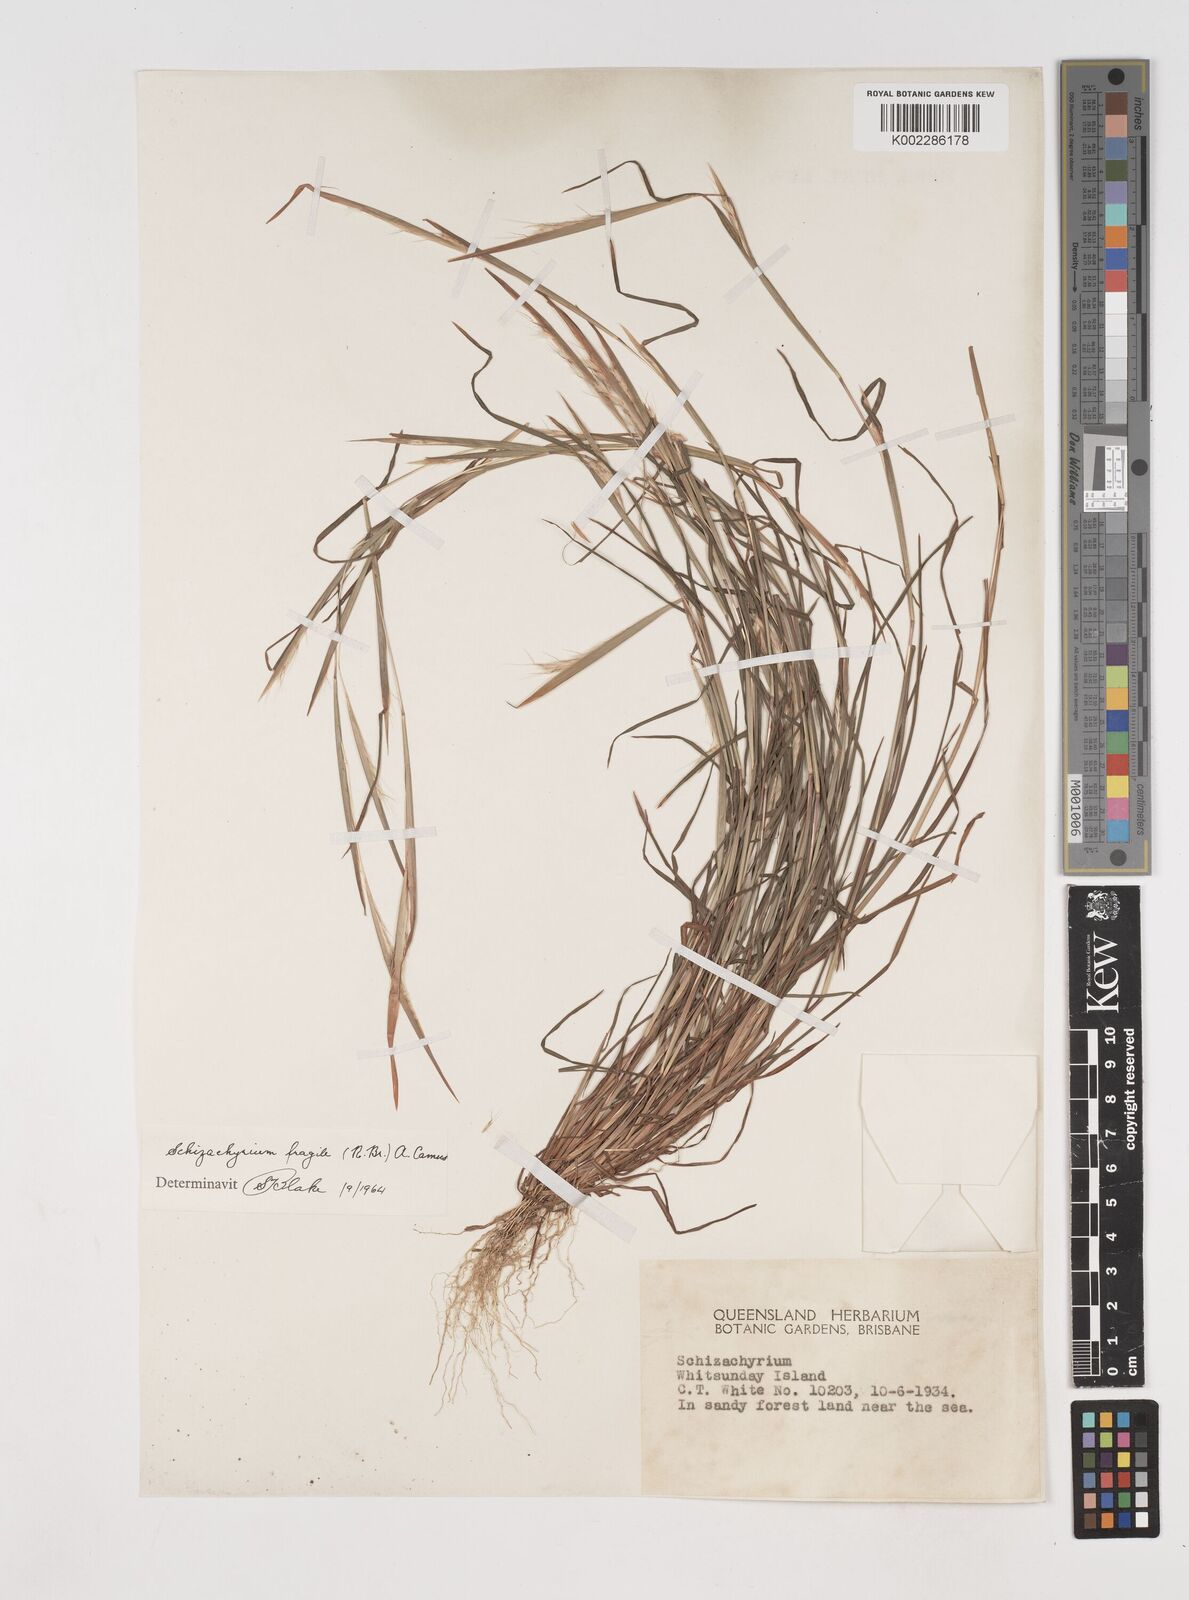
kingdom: Plantae
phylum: Tracheophyta
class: Liliopsida
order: Poales
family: Poaceae
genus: Schizachyrium
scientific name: Schizachyrium fragile
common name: Red spathe grass
